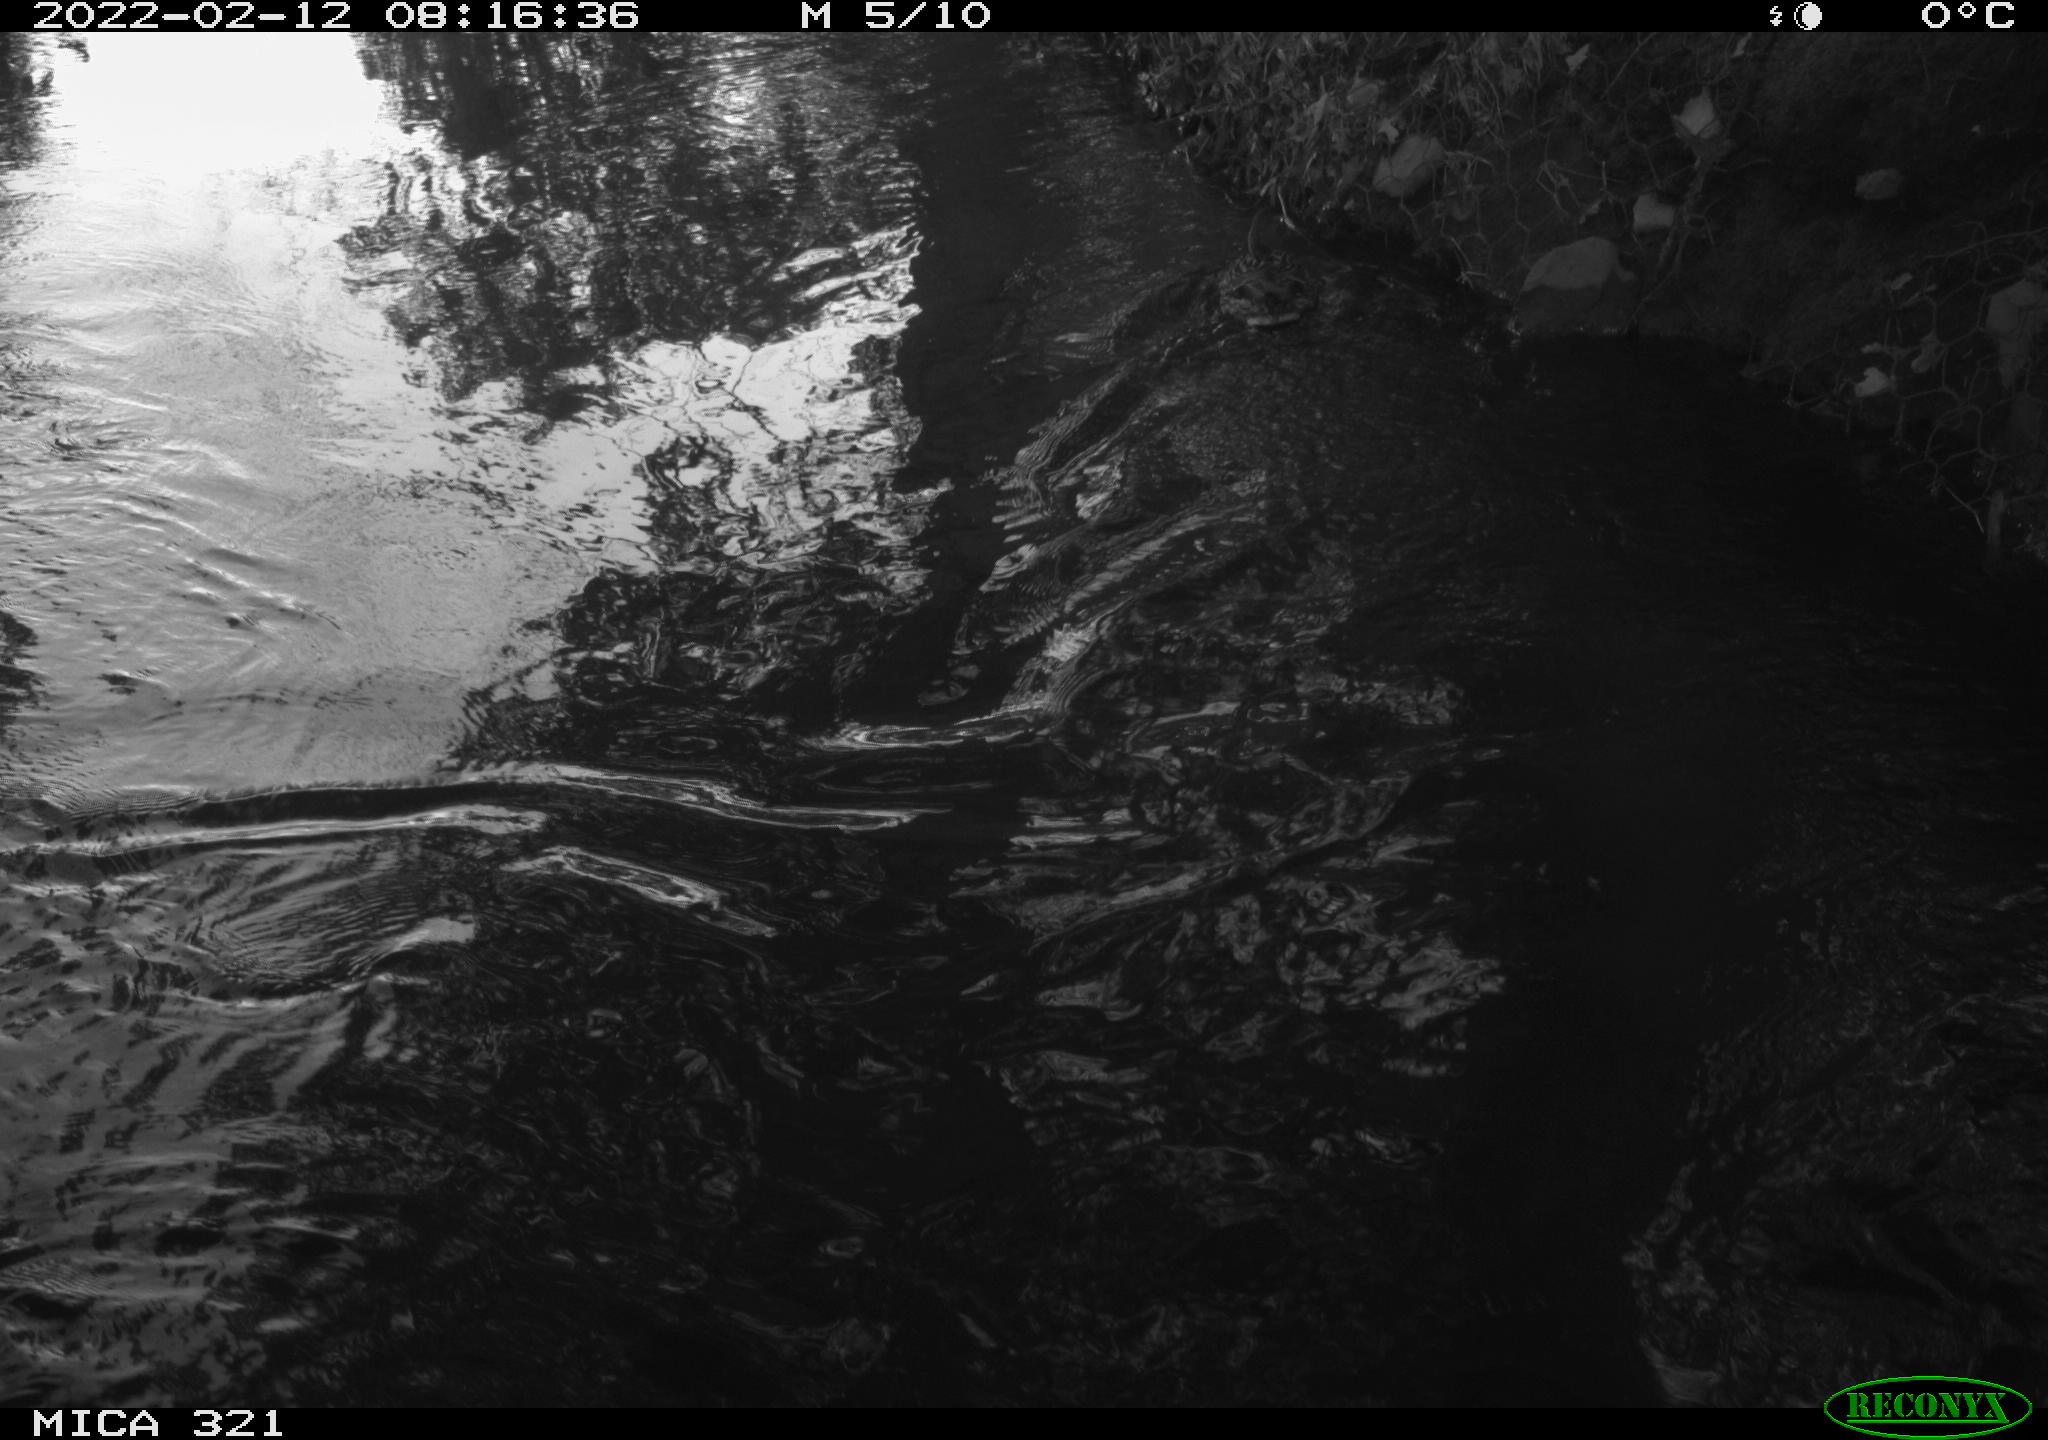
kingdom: Animalia
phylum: Chordata
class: Aves
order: Anseriformes
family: Anatidae
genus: Anas
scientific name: Anas platyrhynchos
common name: Mallard
